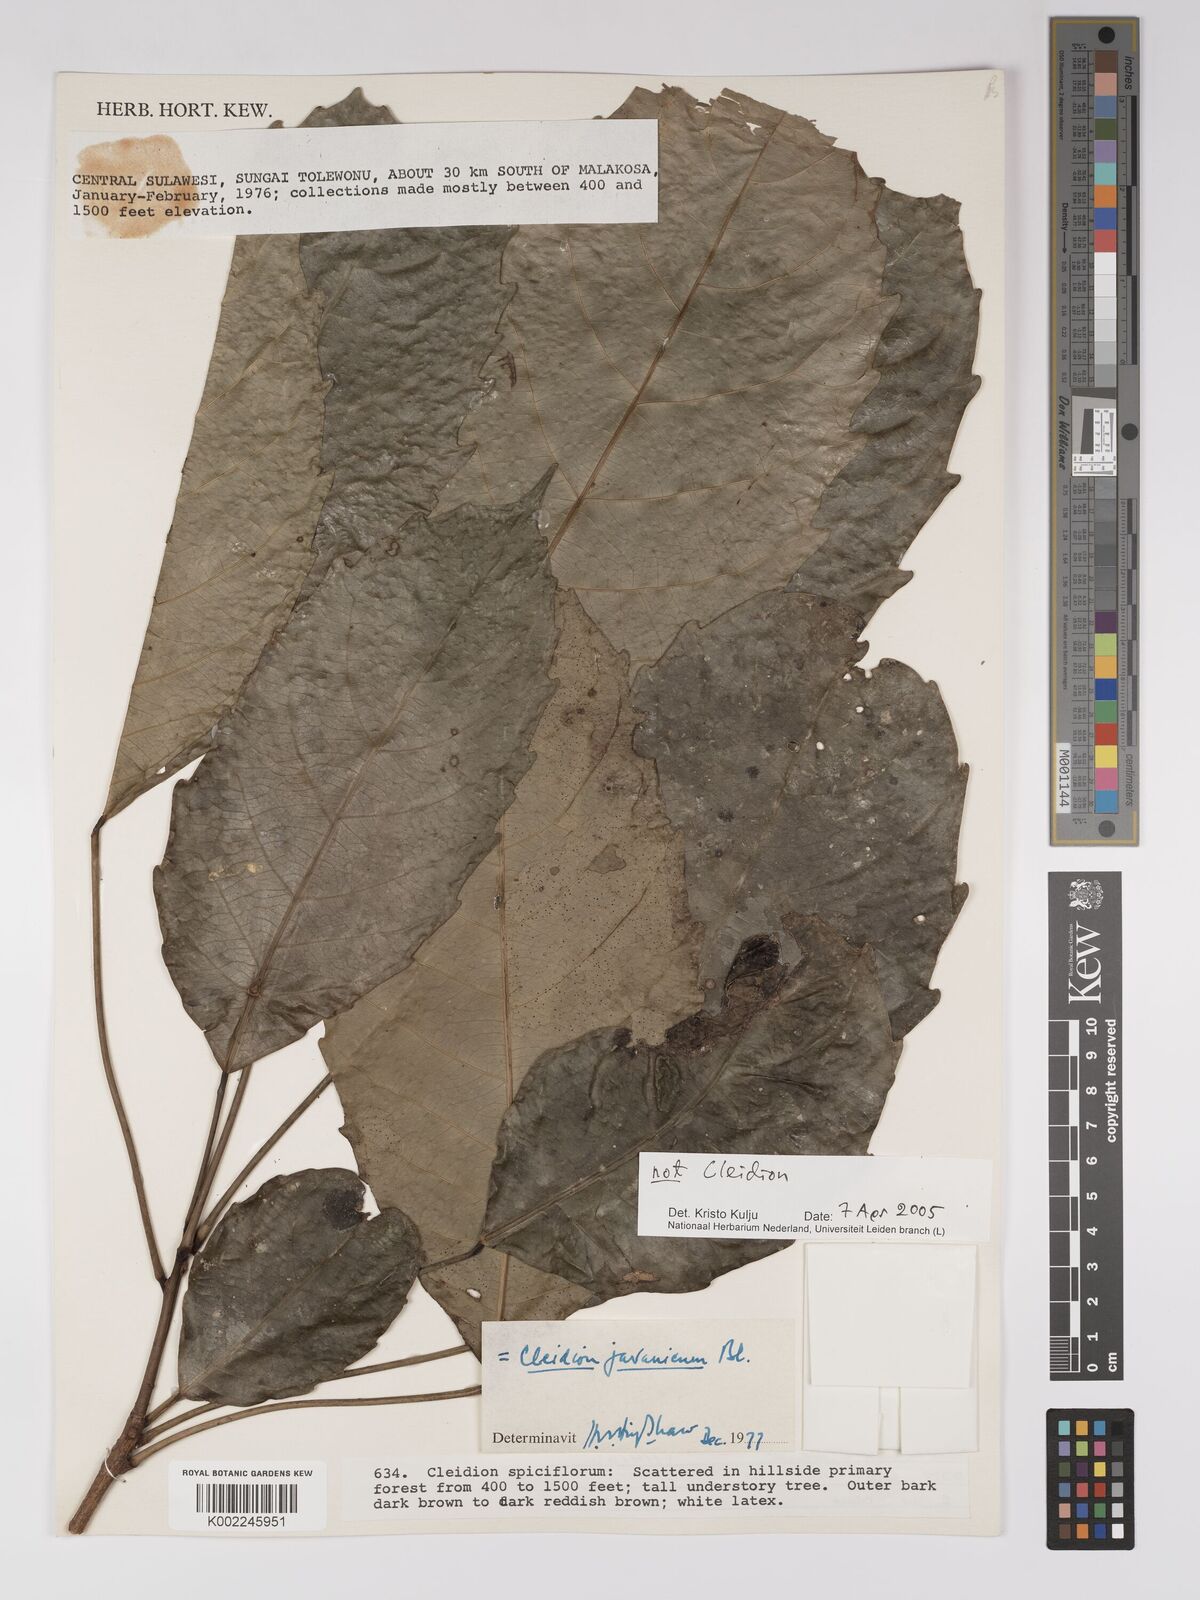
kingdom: Plantae
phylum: Tracheophyta
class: Magnoliopsida
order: Malpighiales
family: Euphorbiaceae
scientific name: Euphorbiaceae
